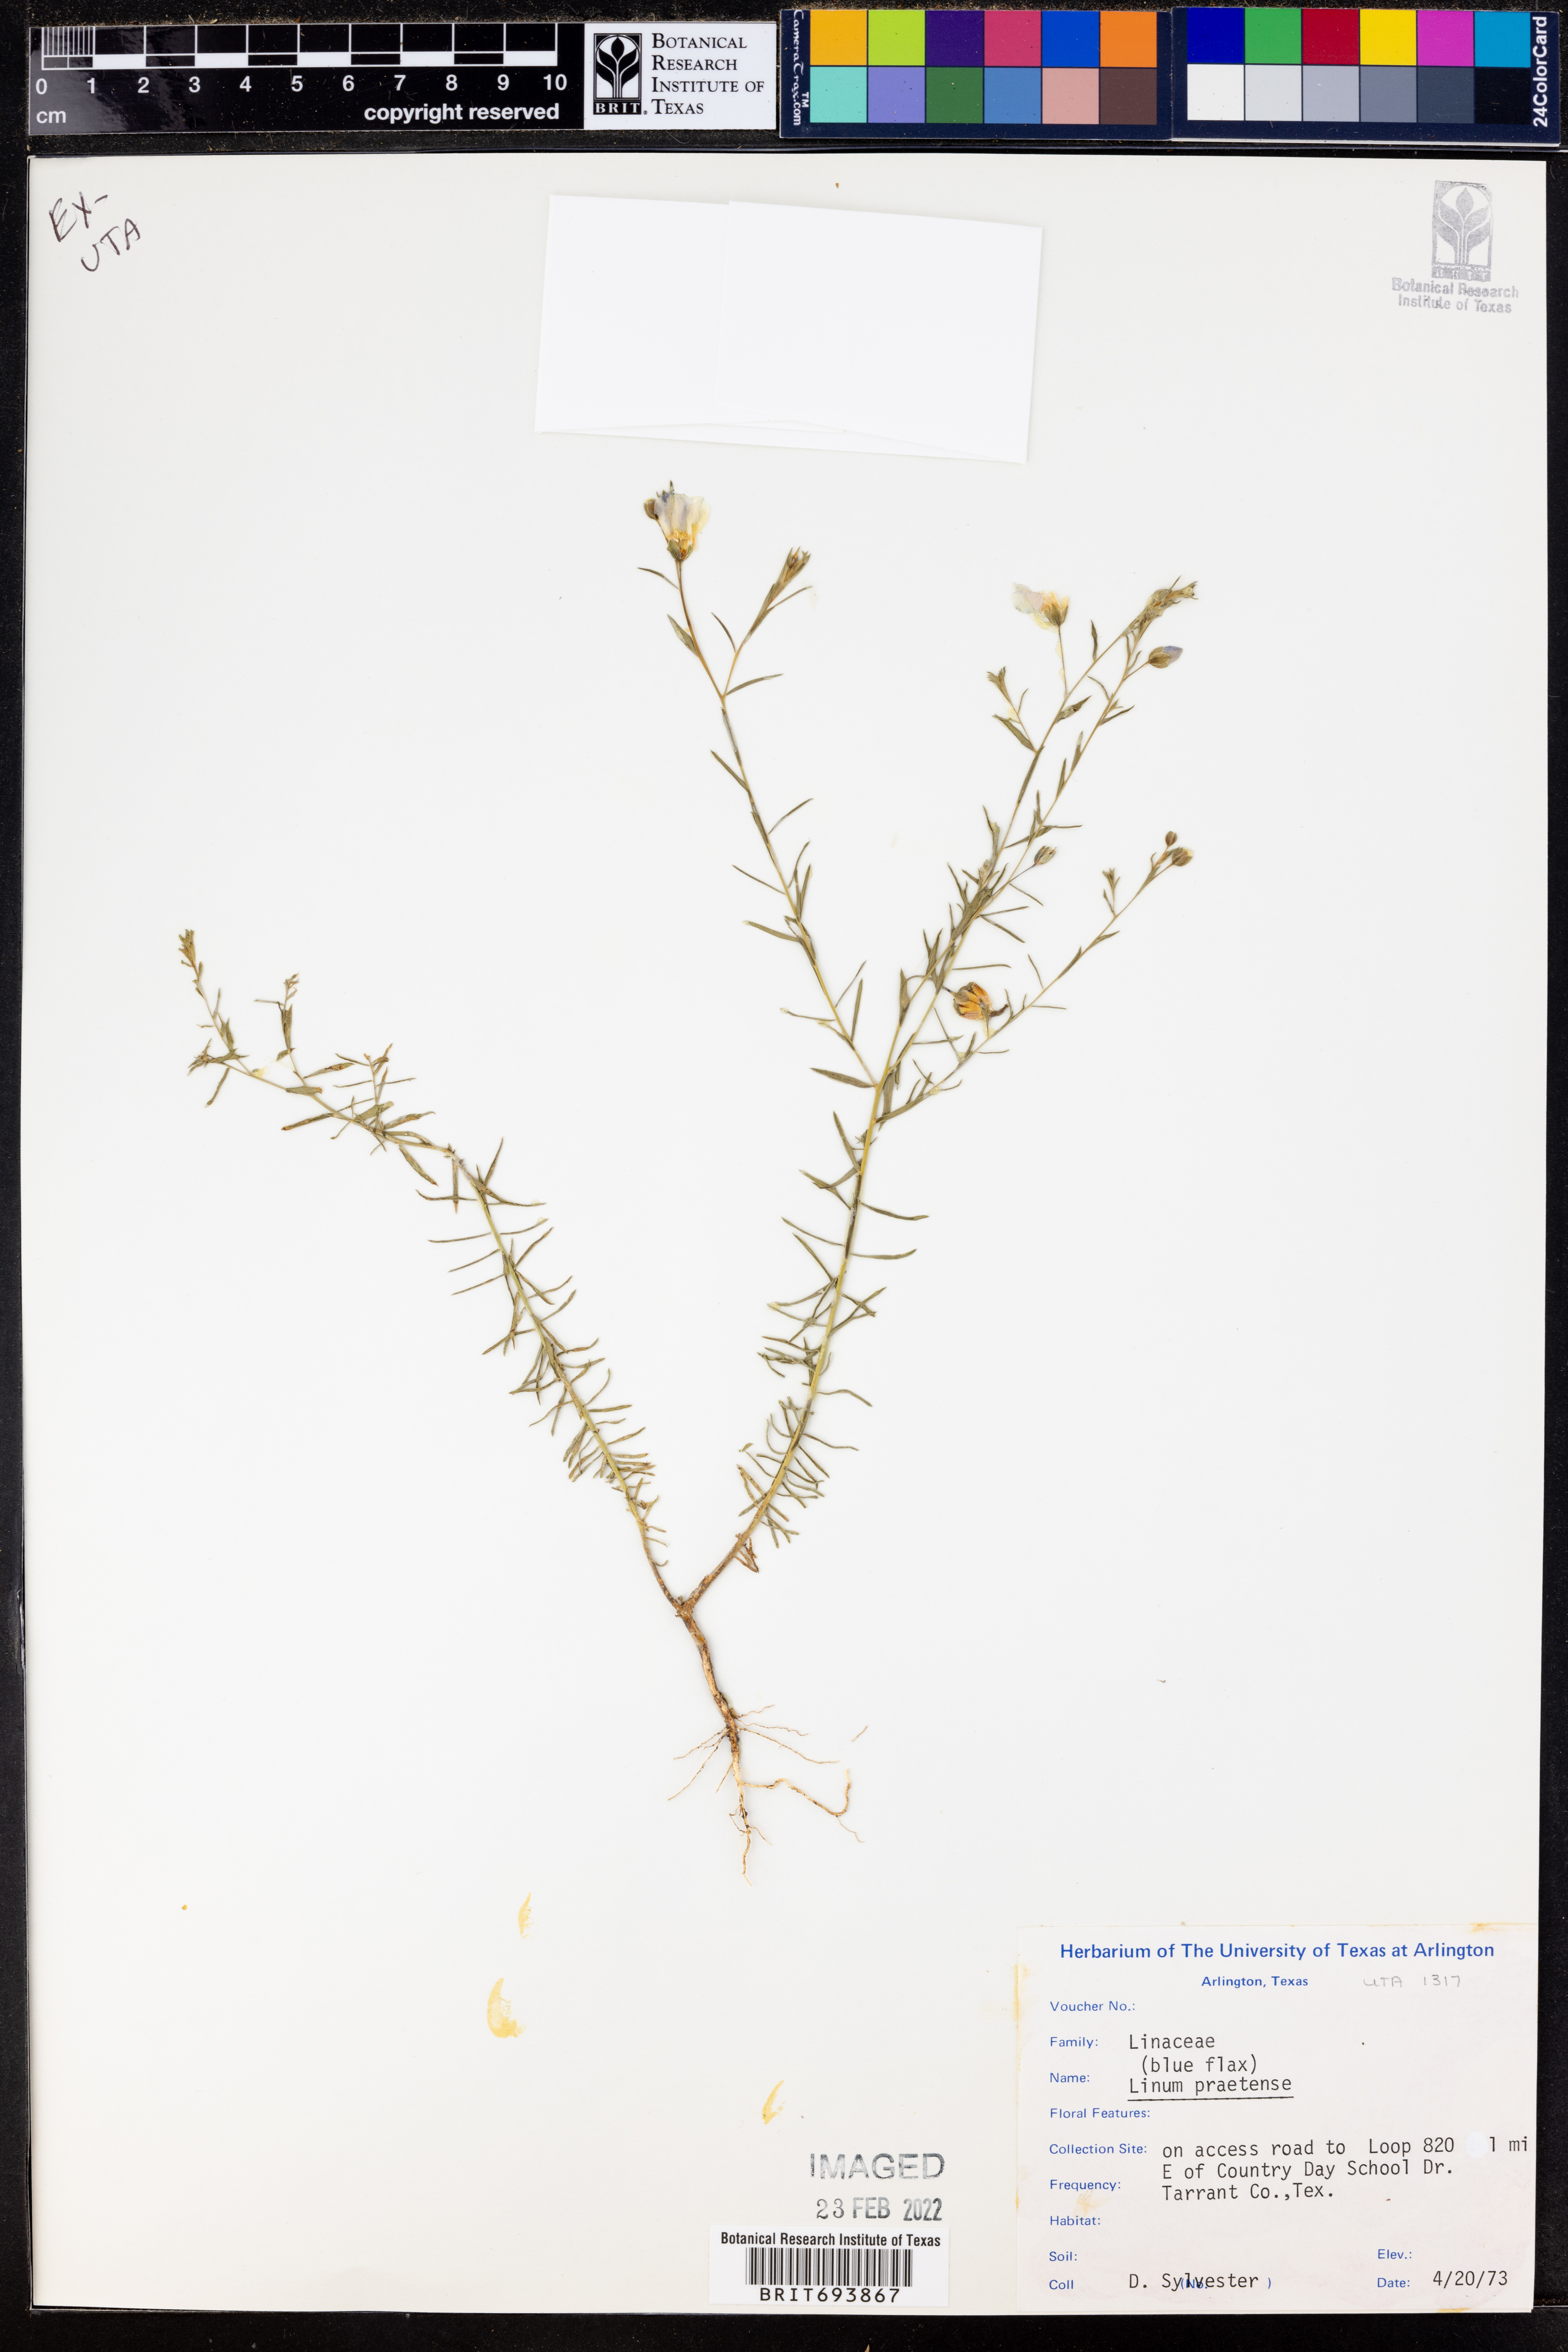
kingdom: Plantae
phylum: Tracheophyta
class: Magnoliopsida
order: Malpighiales
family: Linaceae
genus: Linum
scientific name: Linum pratense
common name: Norton's flax
